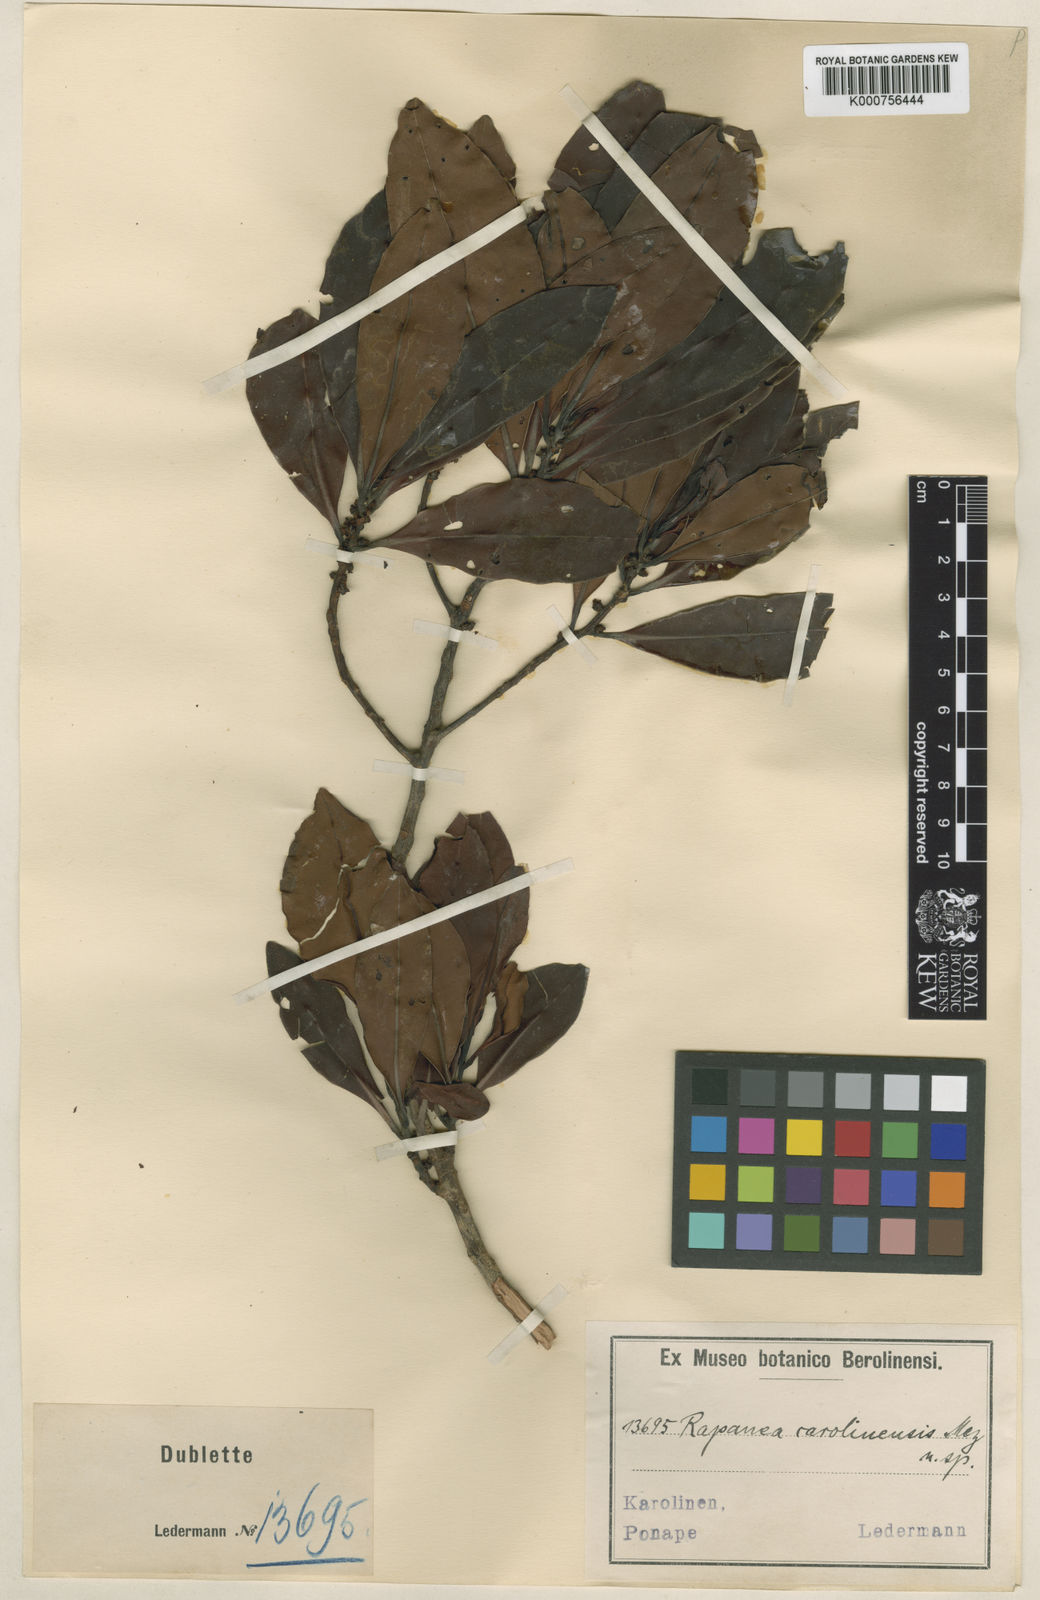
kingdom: Plantae
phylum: Tracheophyta
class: Magnoliopsida
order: Ericales
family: Primulaceae
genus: Myrsine
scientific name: Myrsine carolinensis
